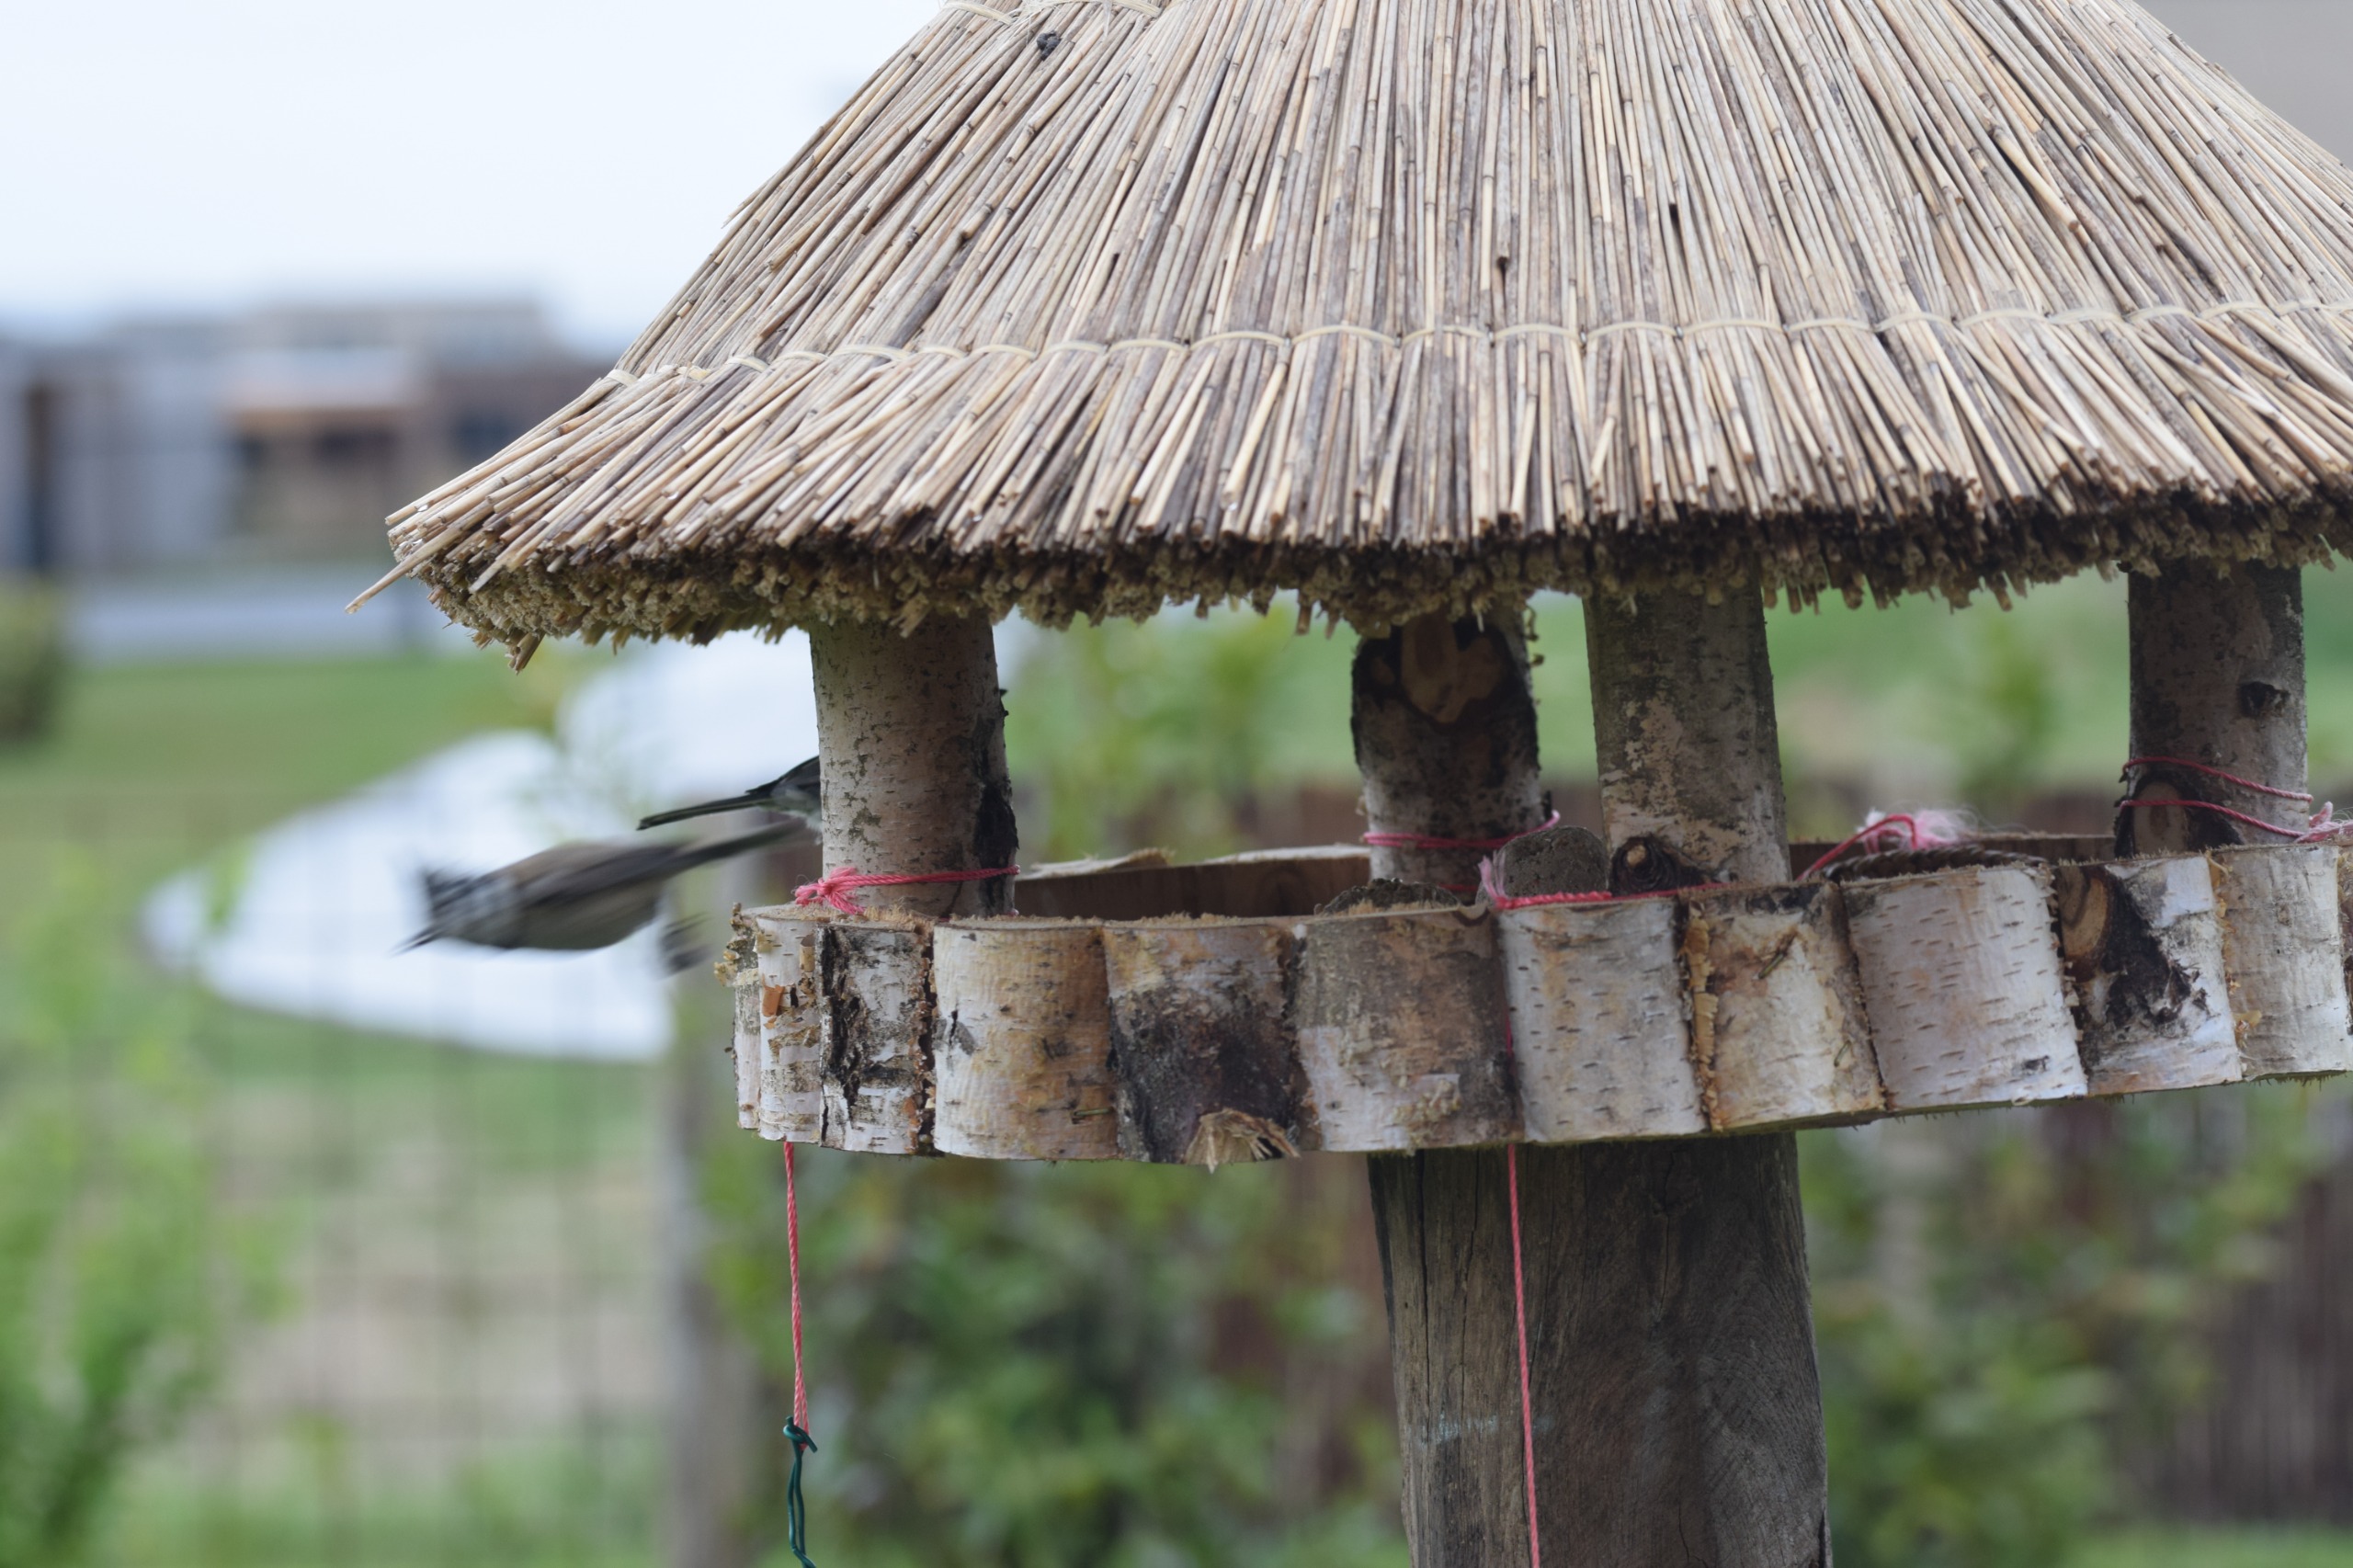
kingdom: Animalia
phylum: Chordata
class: Aves
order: Passeriformes
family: Paridae
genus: Lophophanes
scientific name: Lophophanes cristatus
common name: Topmejse
